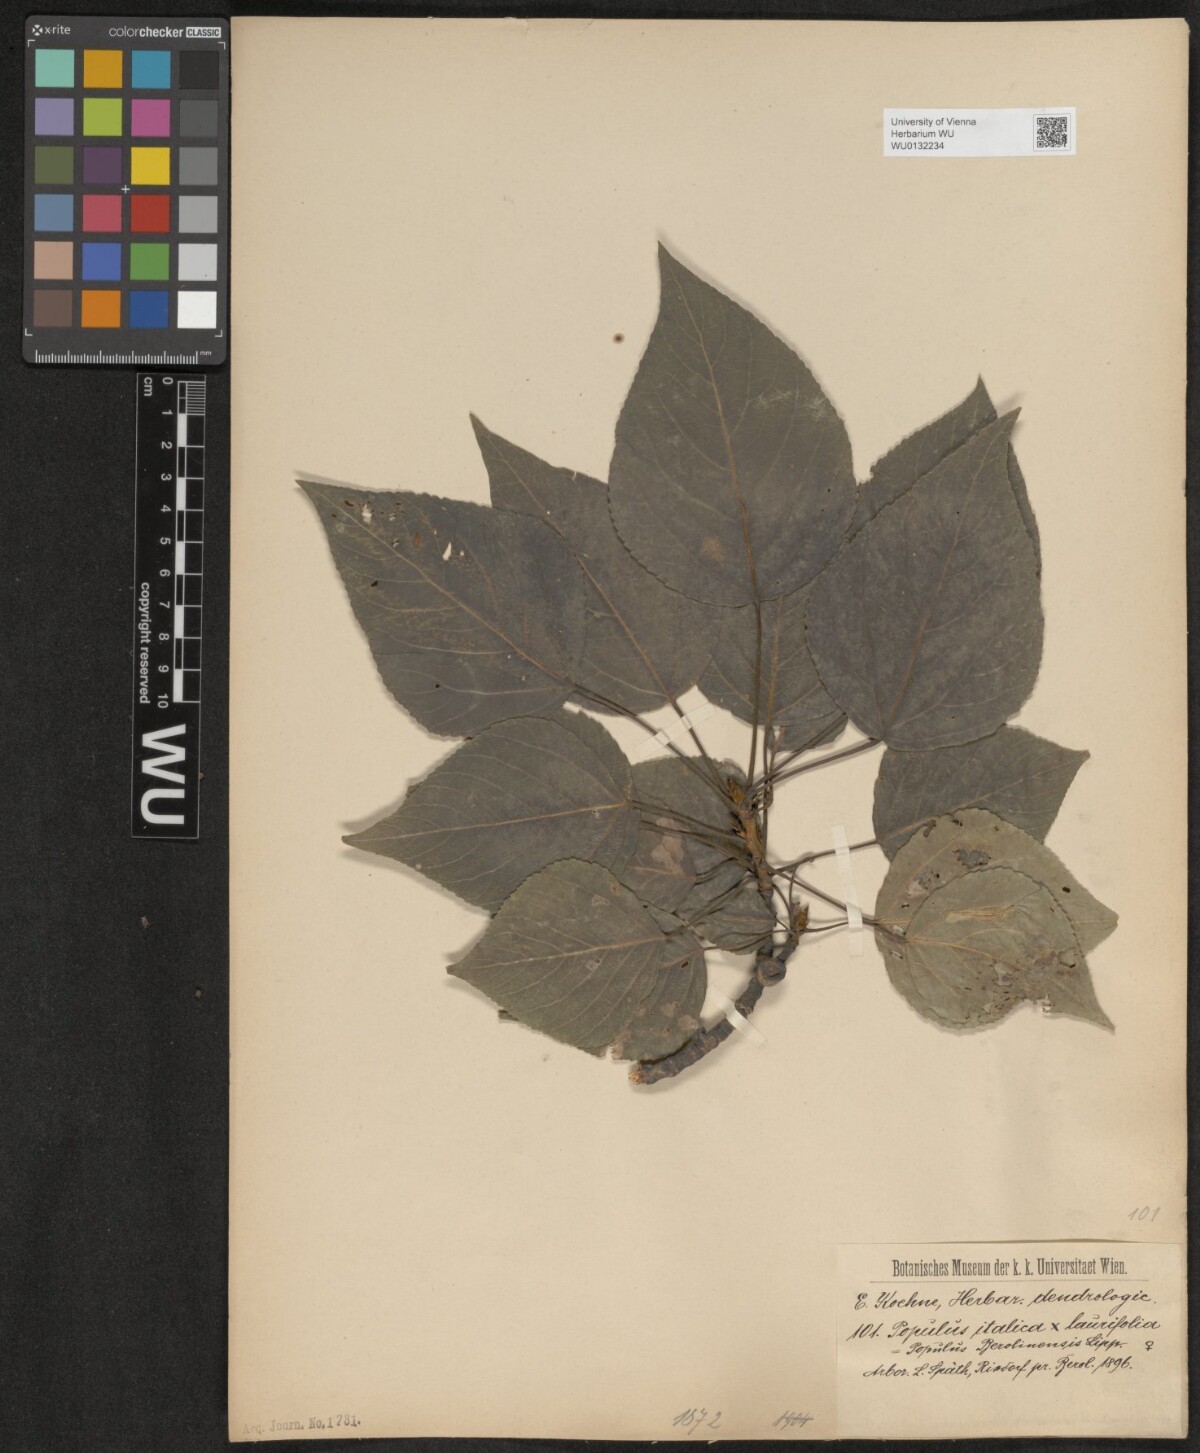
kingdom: Plantae
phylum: Tracheophyta
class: Magnoliopsida
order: Malpighiales
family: Salicaceae
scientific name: Salicaceae
